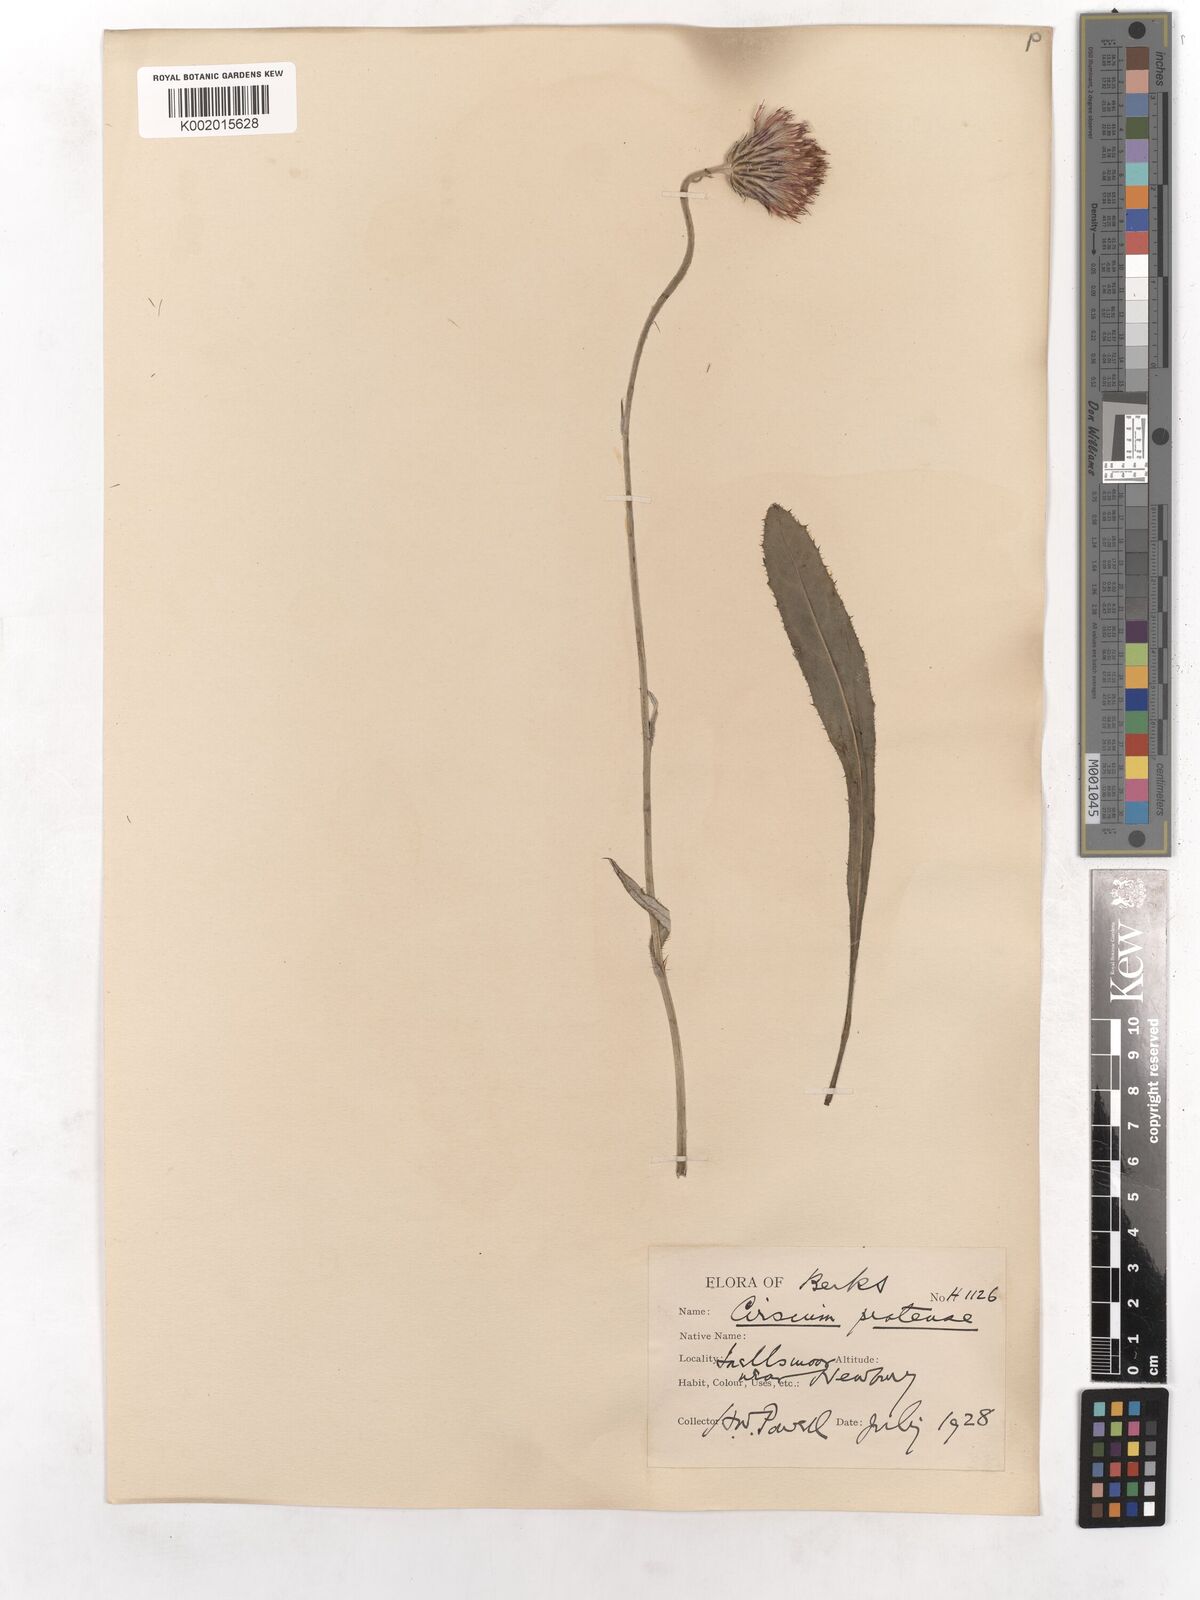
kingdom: Plantae
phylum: Tracheophyta
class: Magnoliopsida
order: Asterales
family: Asteraceae
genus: Cirsium
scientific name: Cirsium dissectum
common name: Meadow thistle
